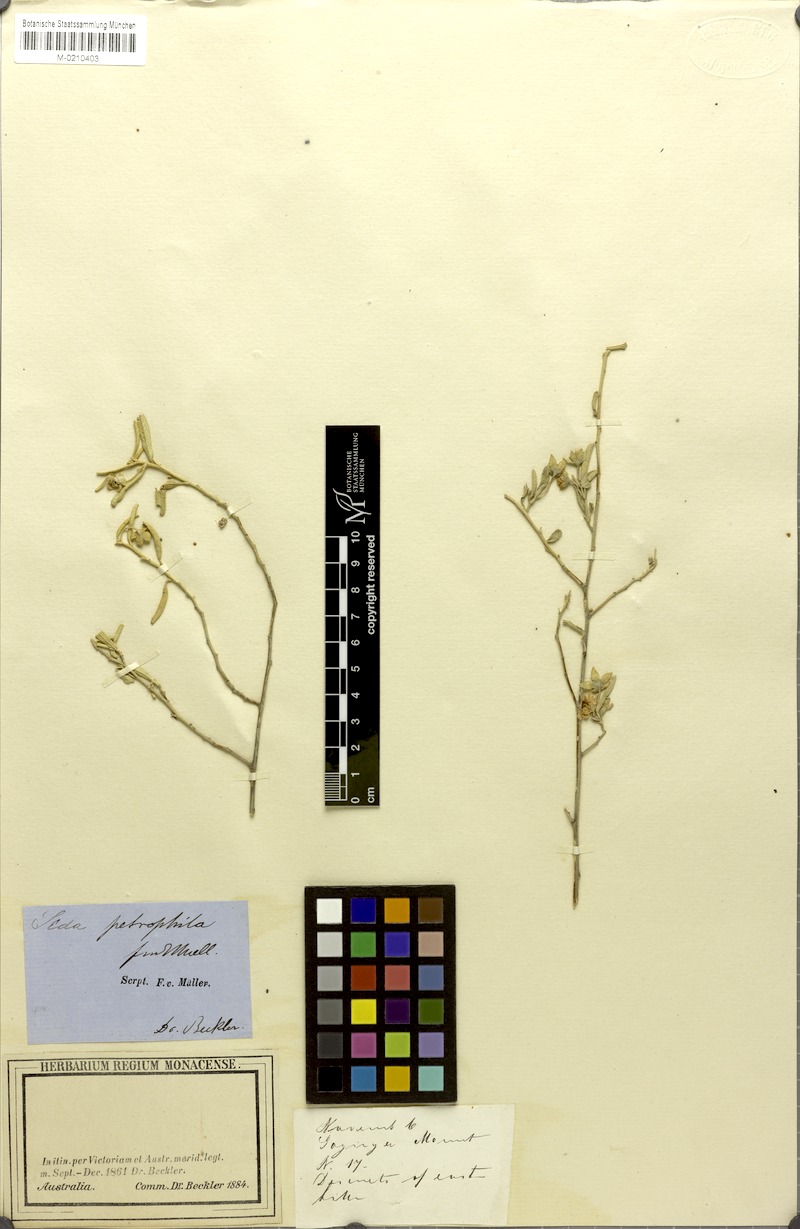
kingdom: Plantae
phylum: Tracheophyta
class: Magnoliopsida
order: Malvales
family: Malvaceae
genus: Sida
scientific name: Sida calyxhymenia
